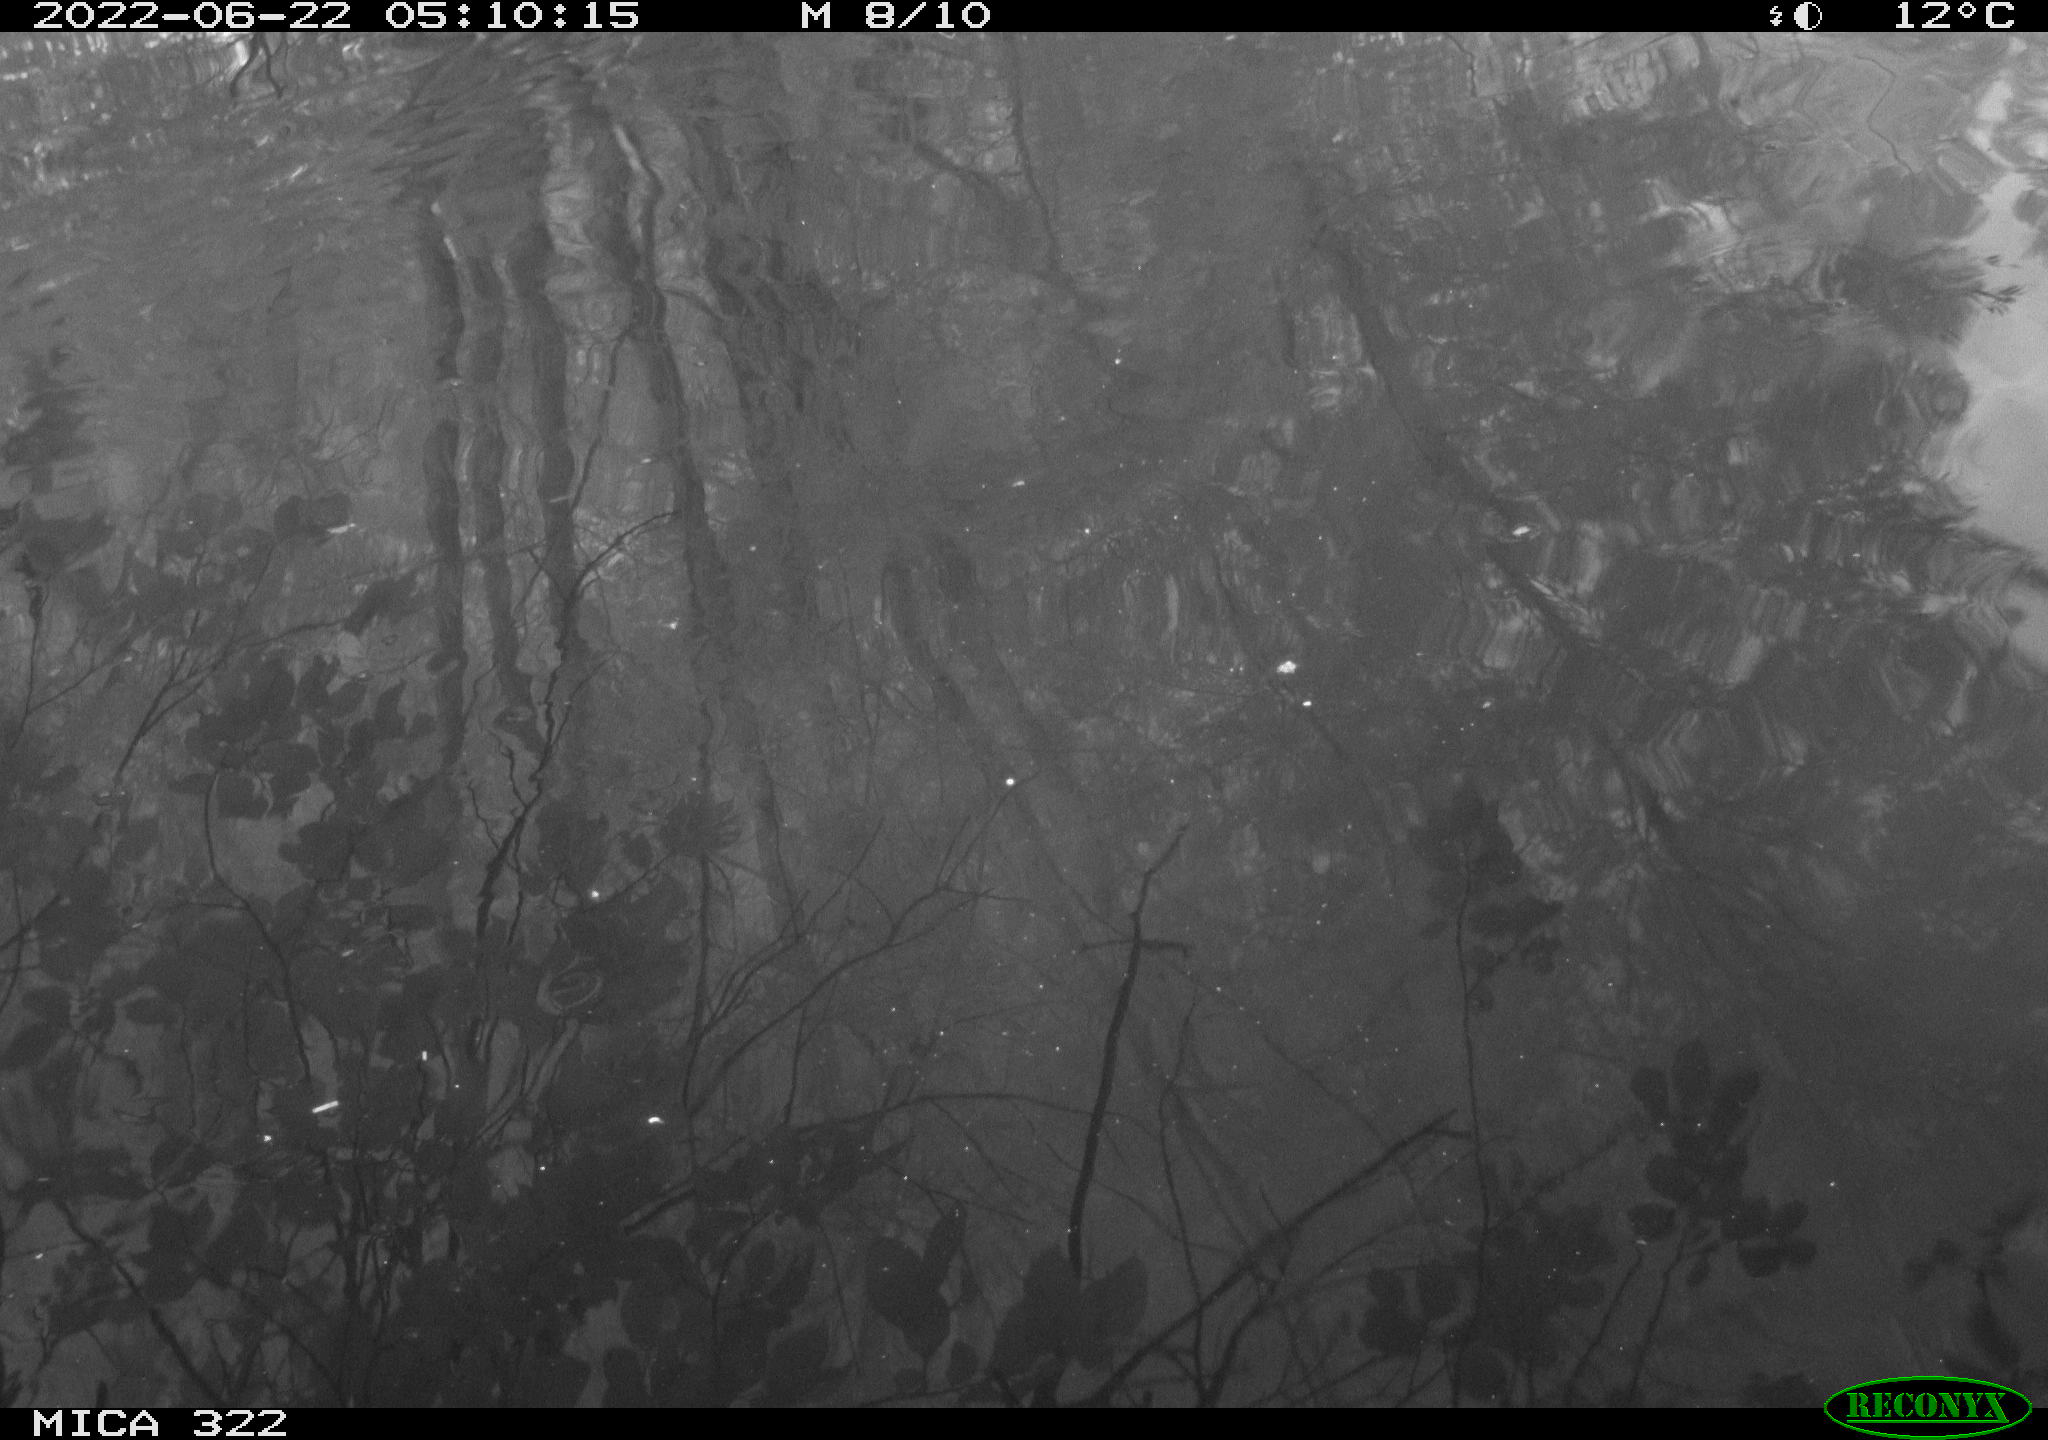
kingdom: Animalia
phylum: Chordata
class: Mammalia
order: Rodentia
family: Cricetidae
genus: Ondatra
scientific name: Ondatra zibethicus
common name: Muskrat
